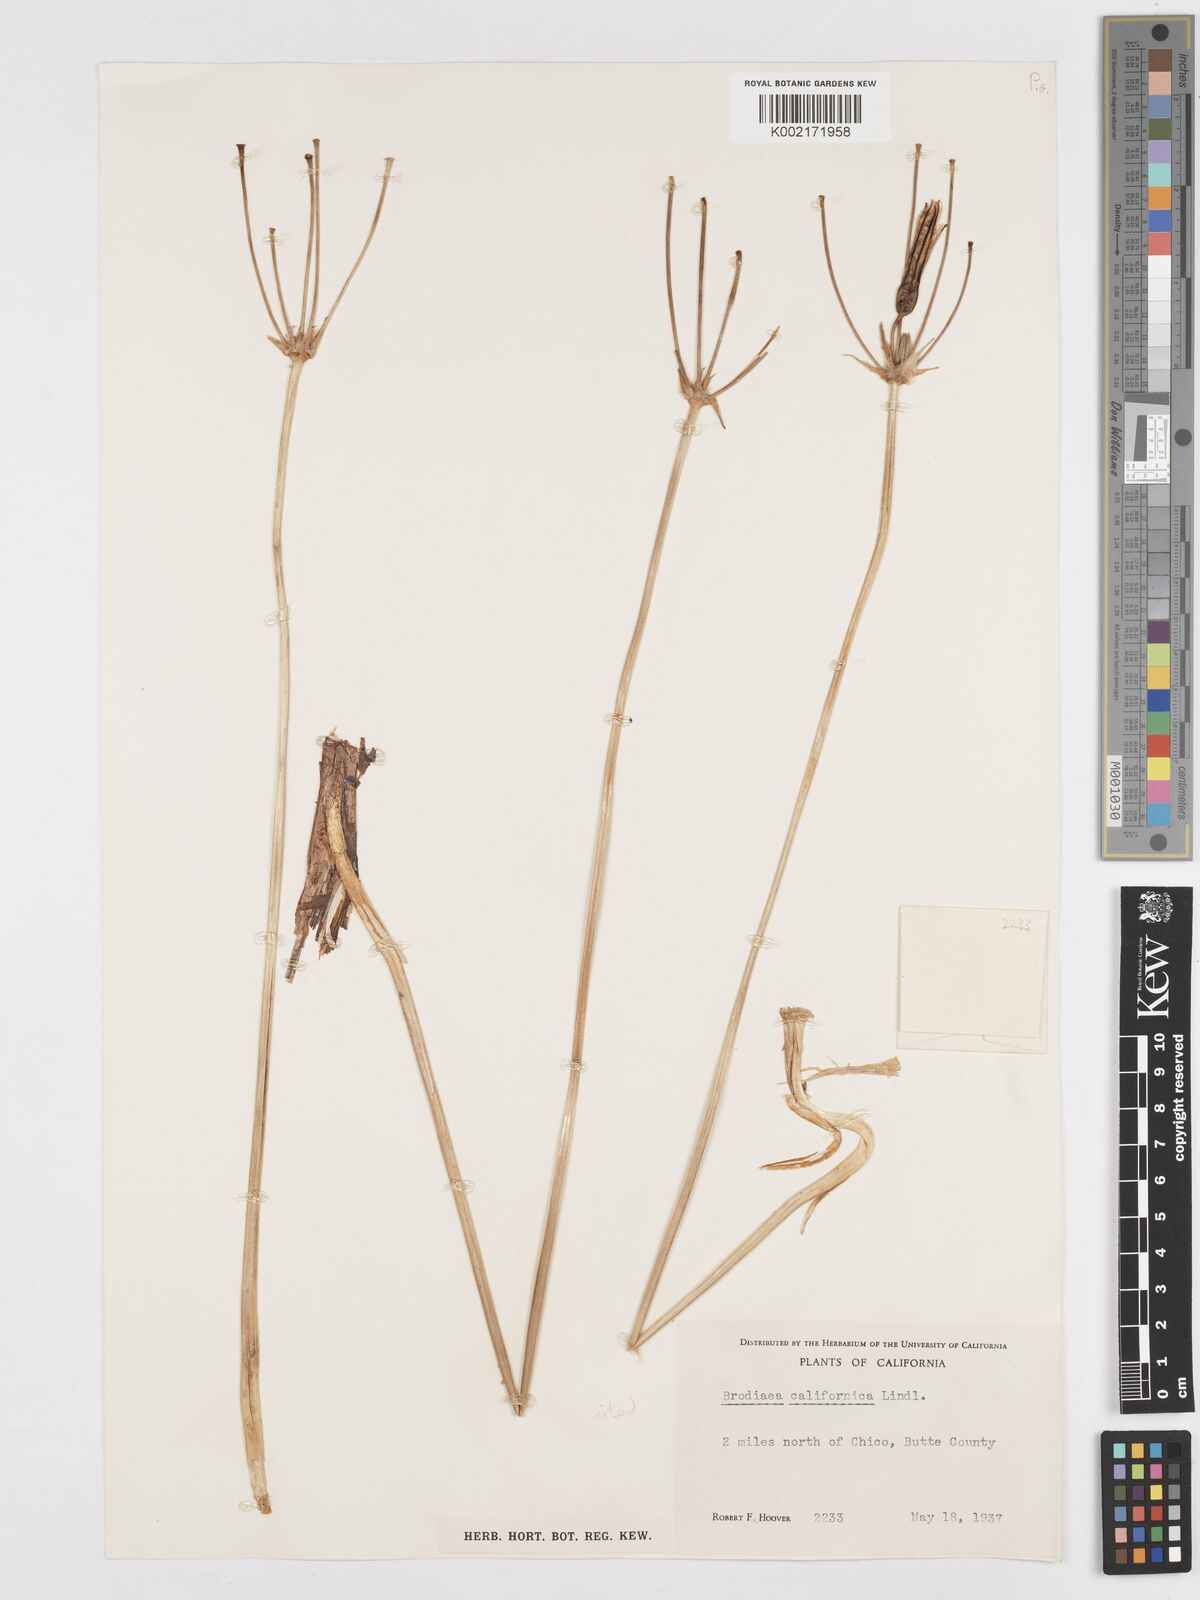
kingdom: Plantae
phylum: Tracheophyta
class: Liliopsida
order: Asparagales
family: Asparagaceae
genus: Brodiaea
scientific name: Brodiaea californica
